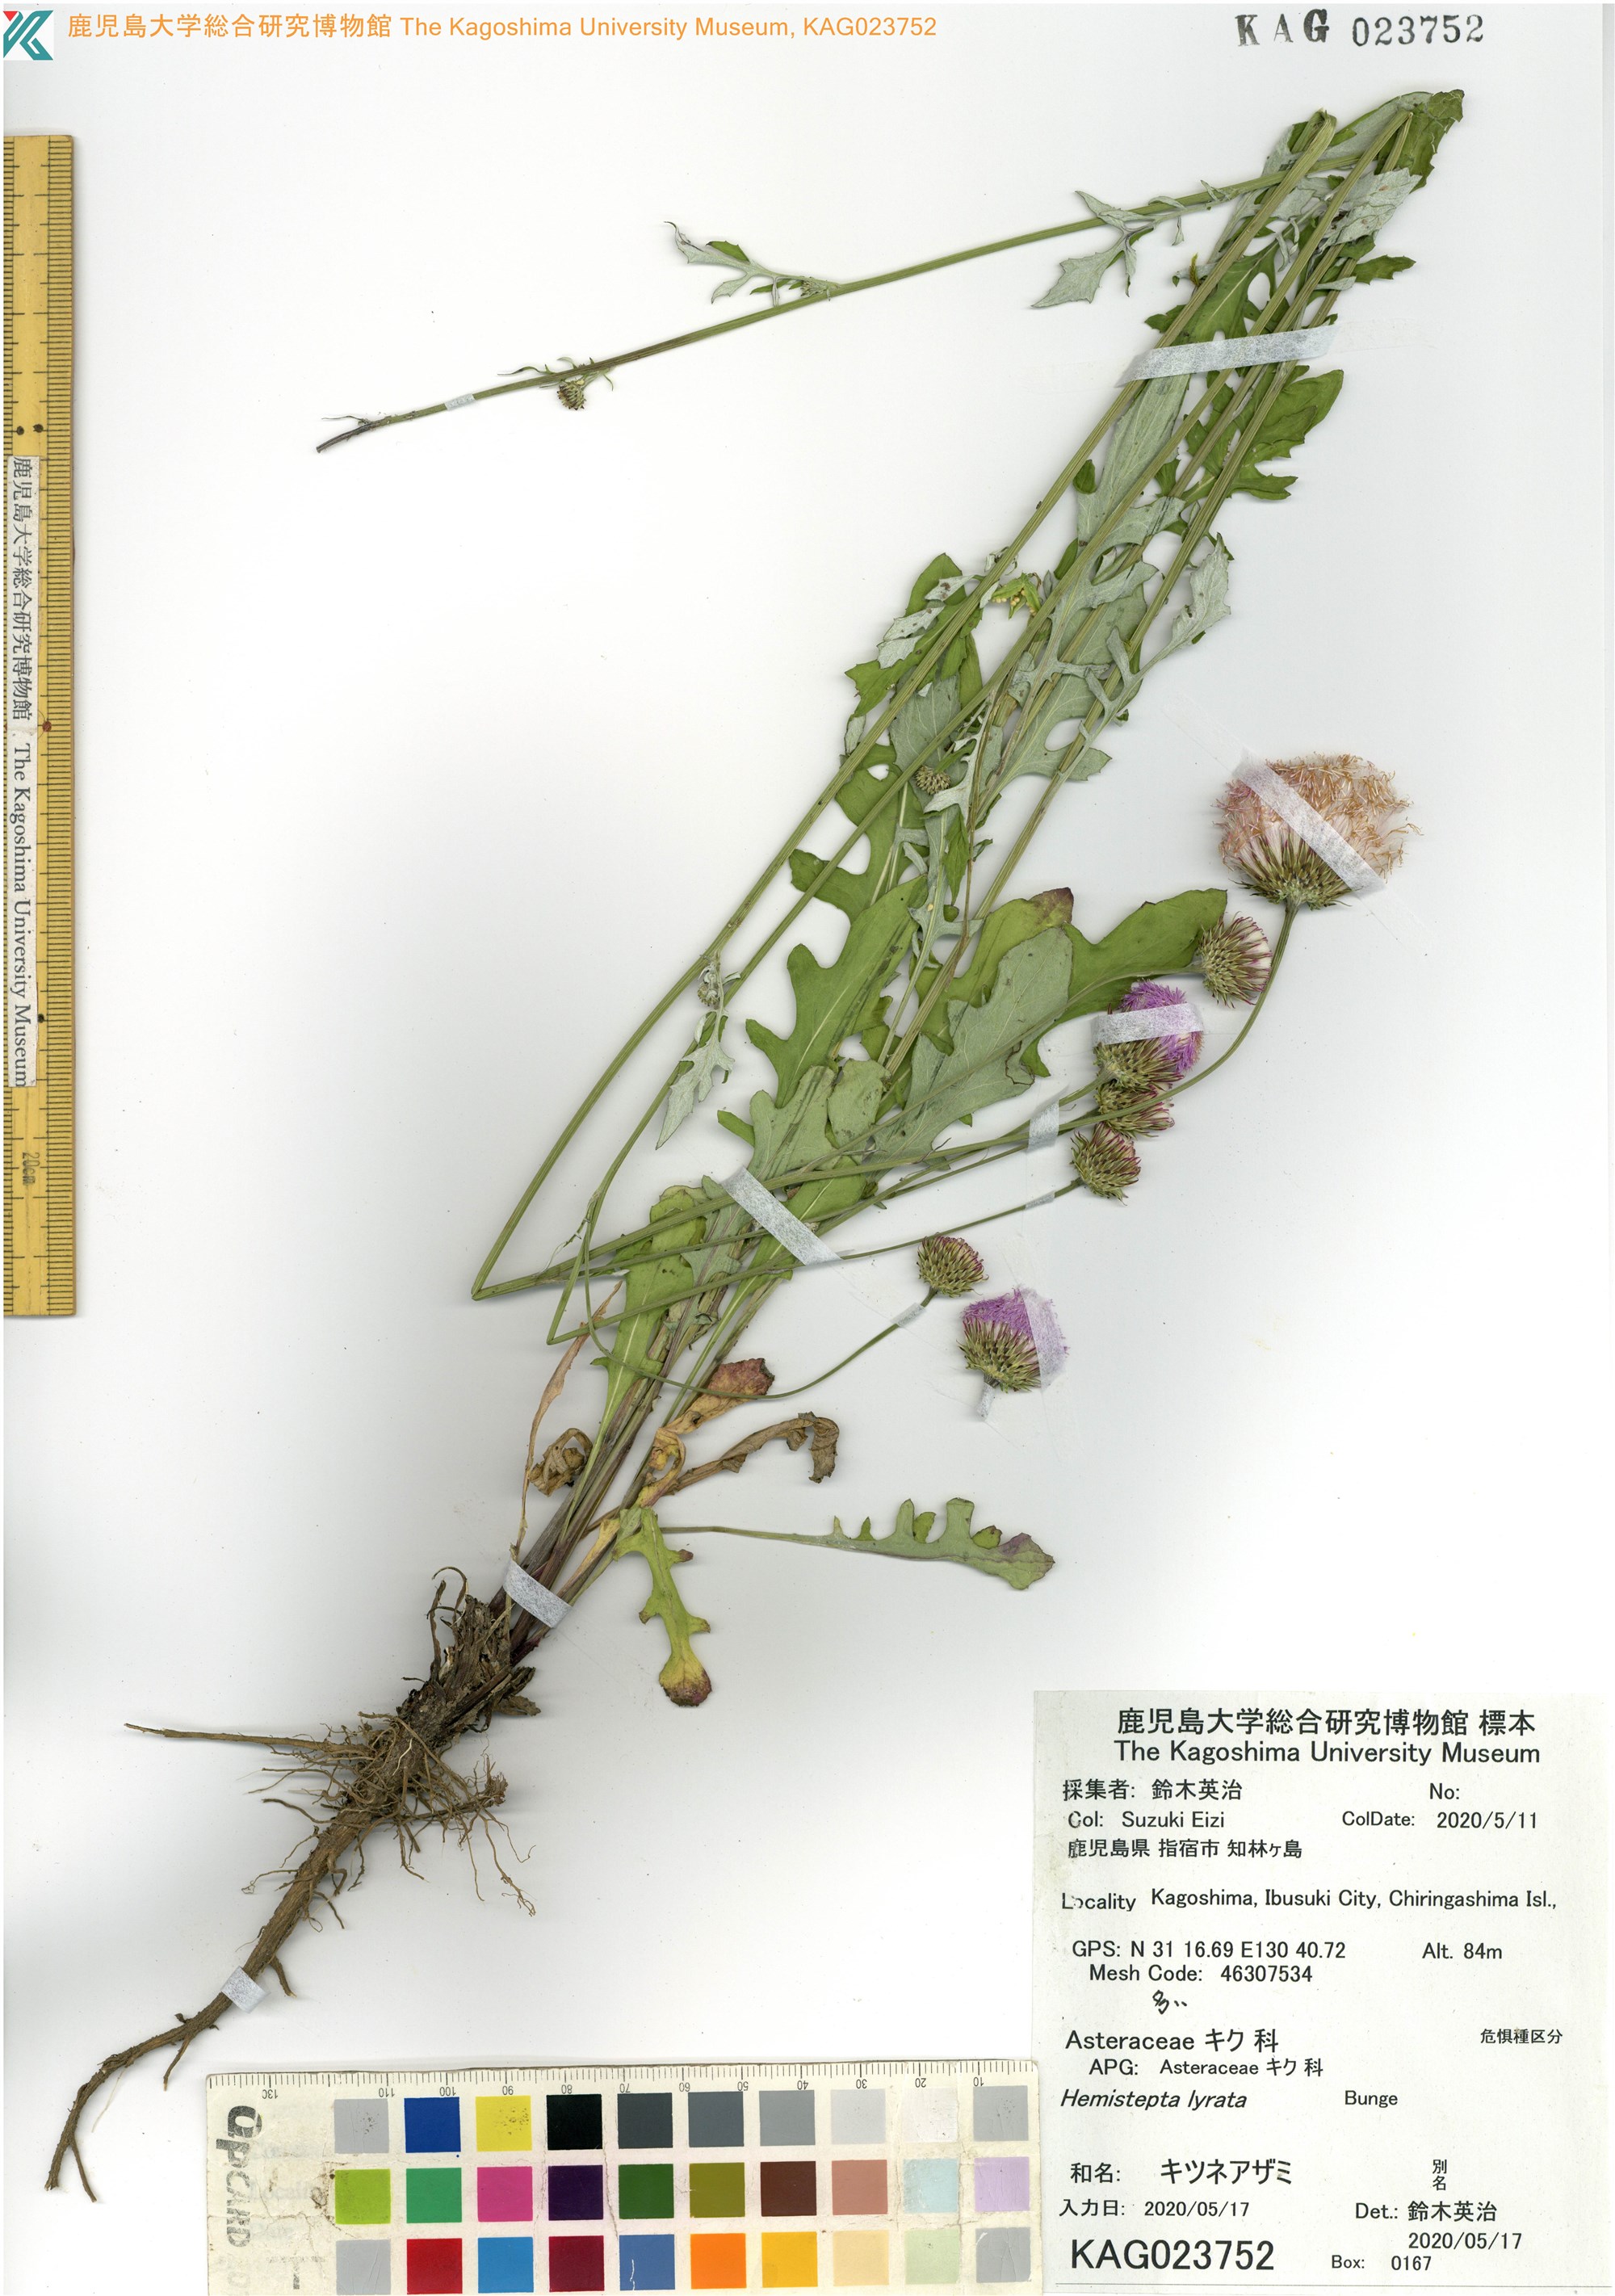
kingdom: Plantae
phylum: Tracheophyta
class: Magnoliopsida
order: Asterales
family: Asteraceae
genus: Saussurea
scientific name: Saussurea Hemistepta lyrata
